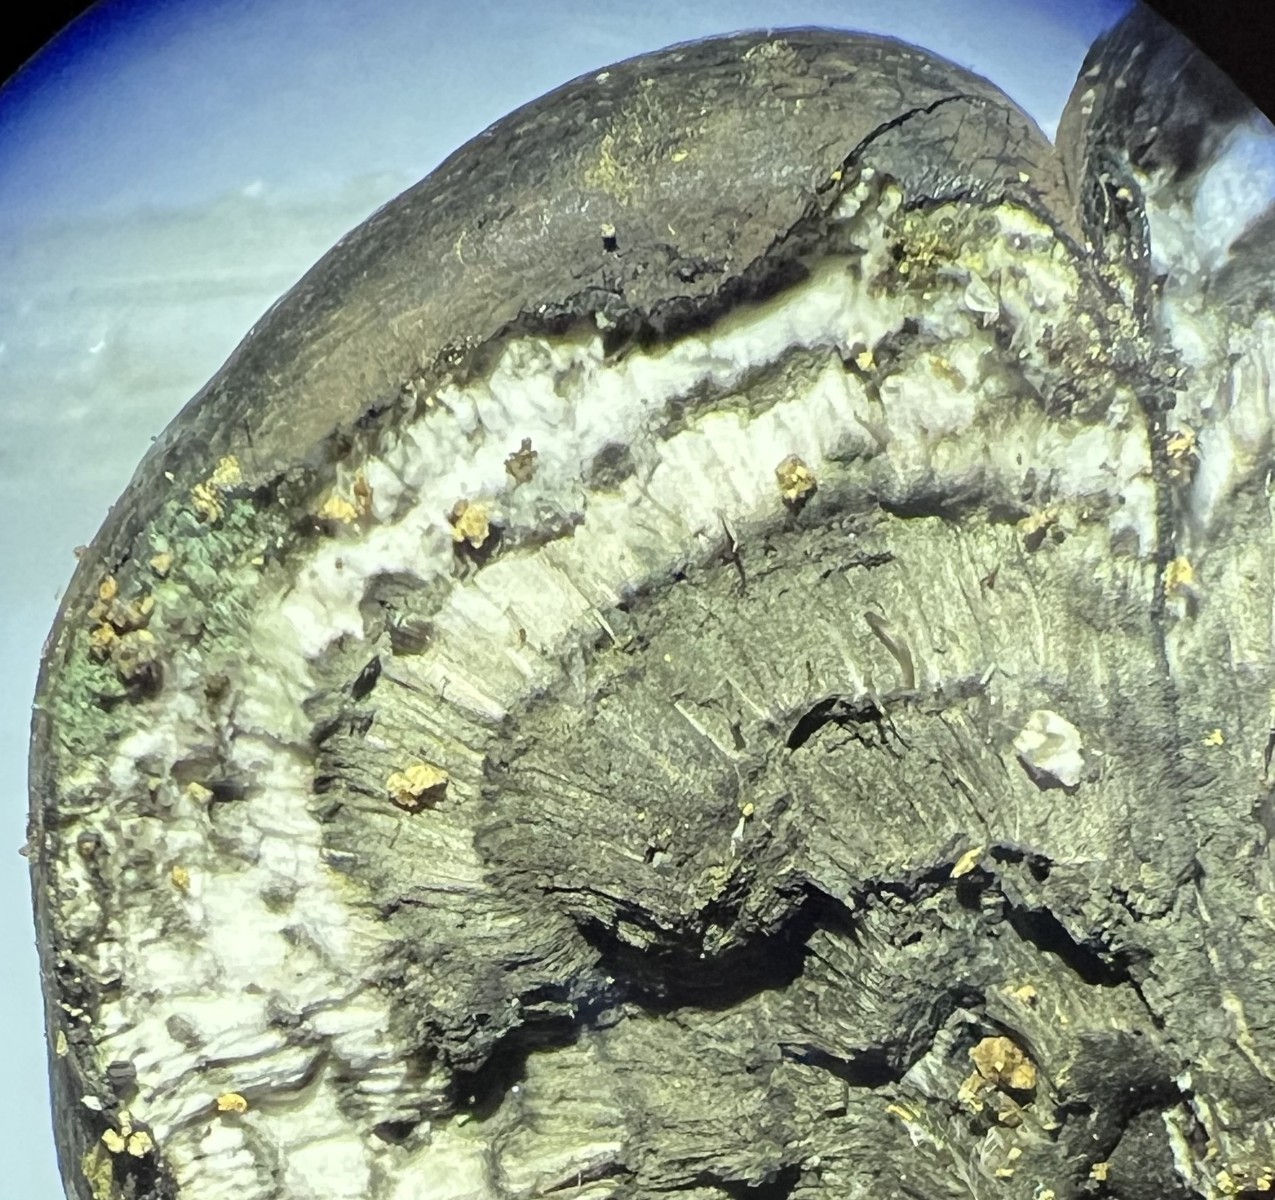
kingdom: Fungi
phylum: Ascomycota
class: Sordariomycetes
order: Xylariales
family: Hypoxylaceae
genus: Daldinia
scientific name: Daldinia concentrica
